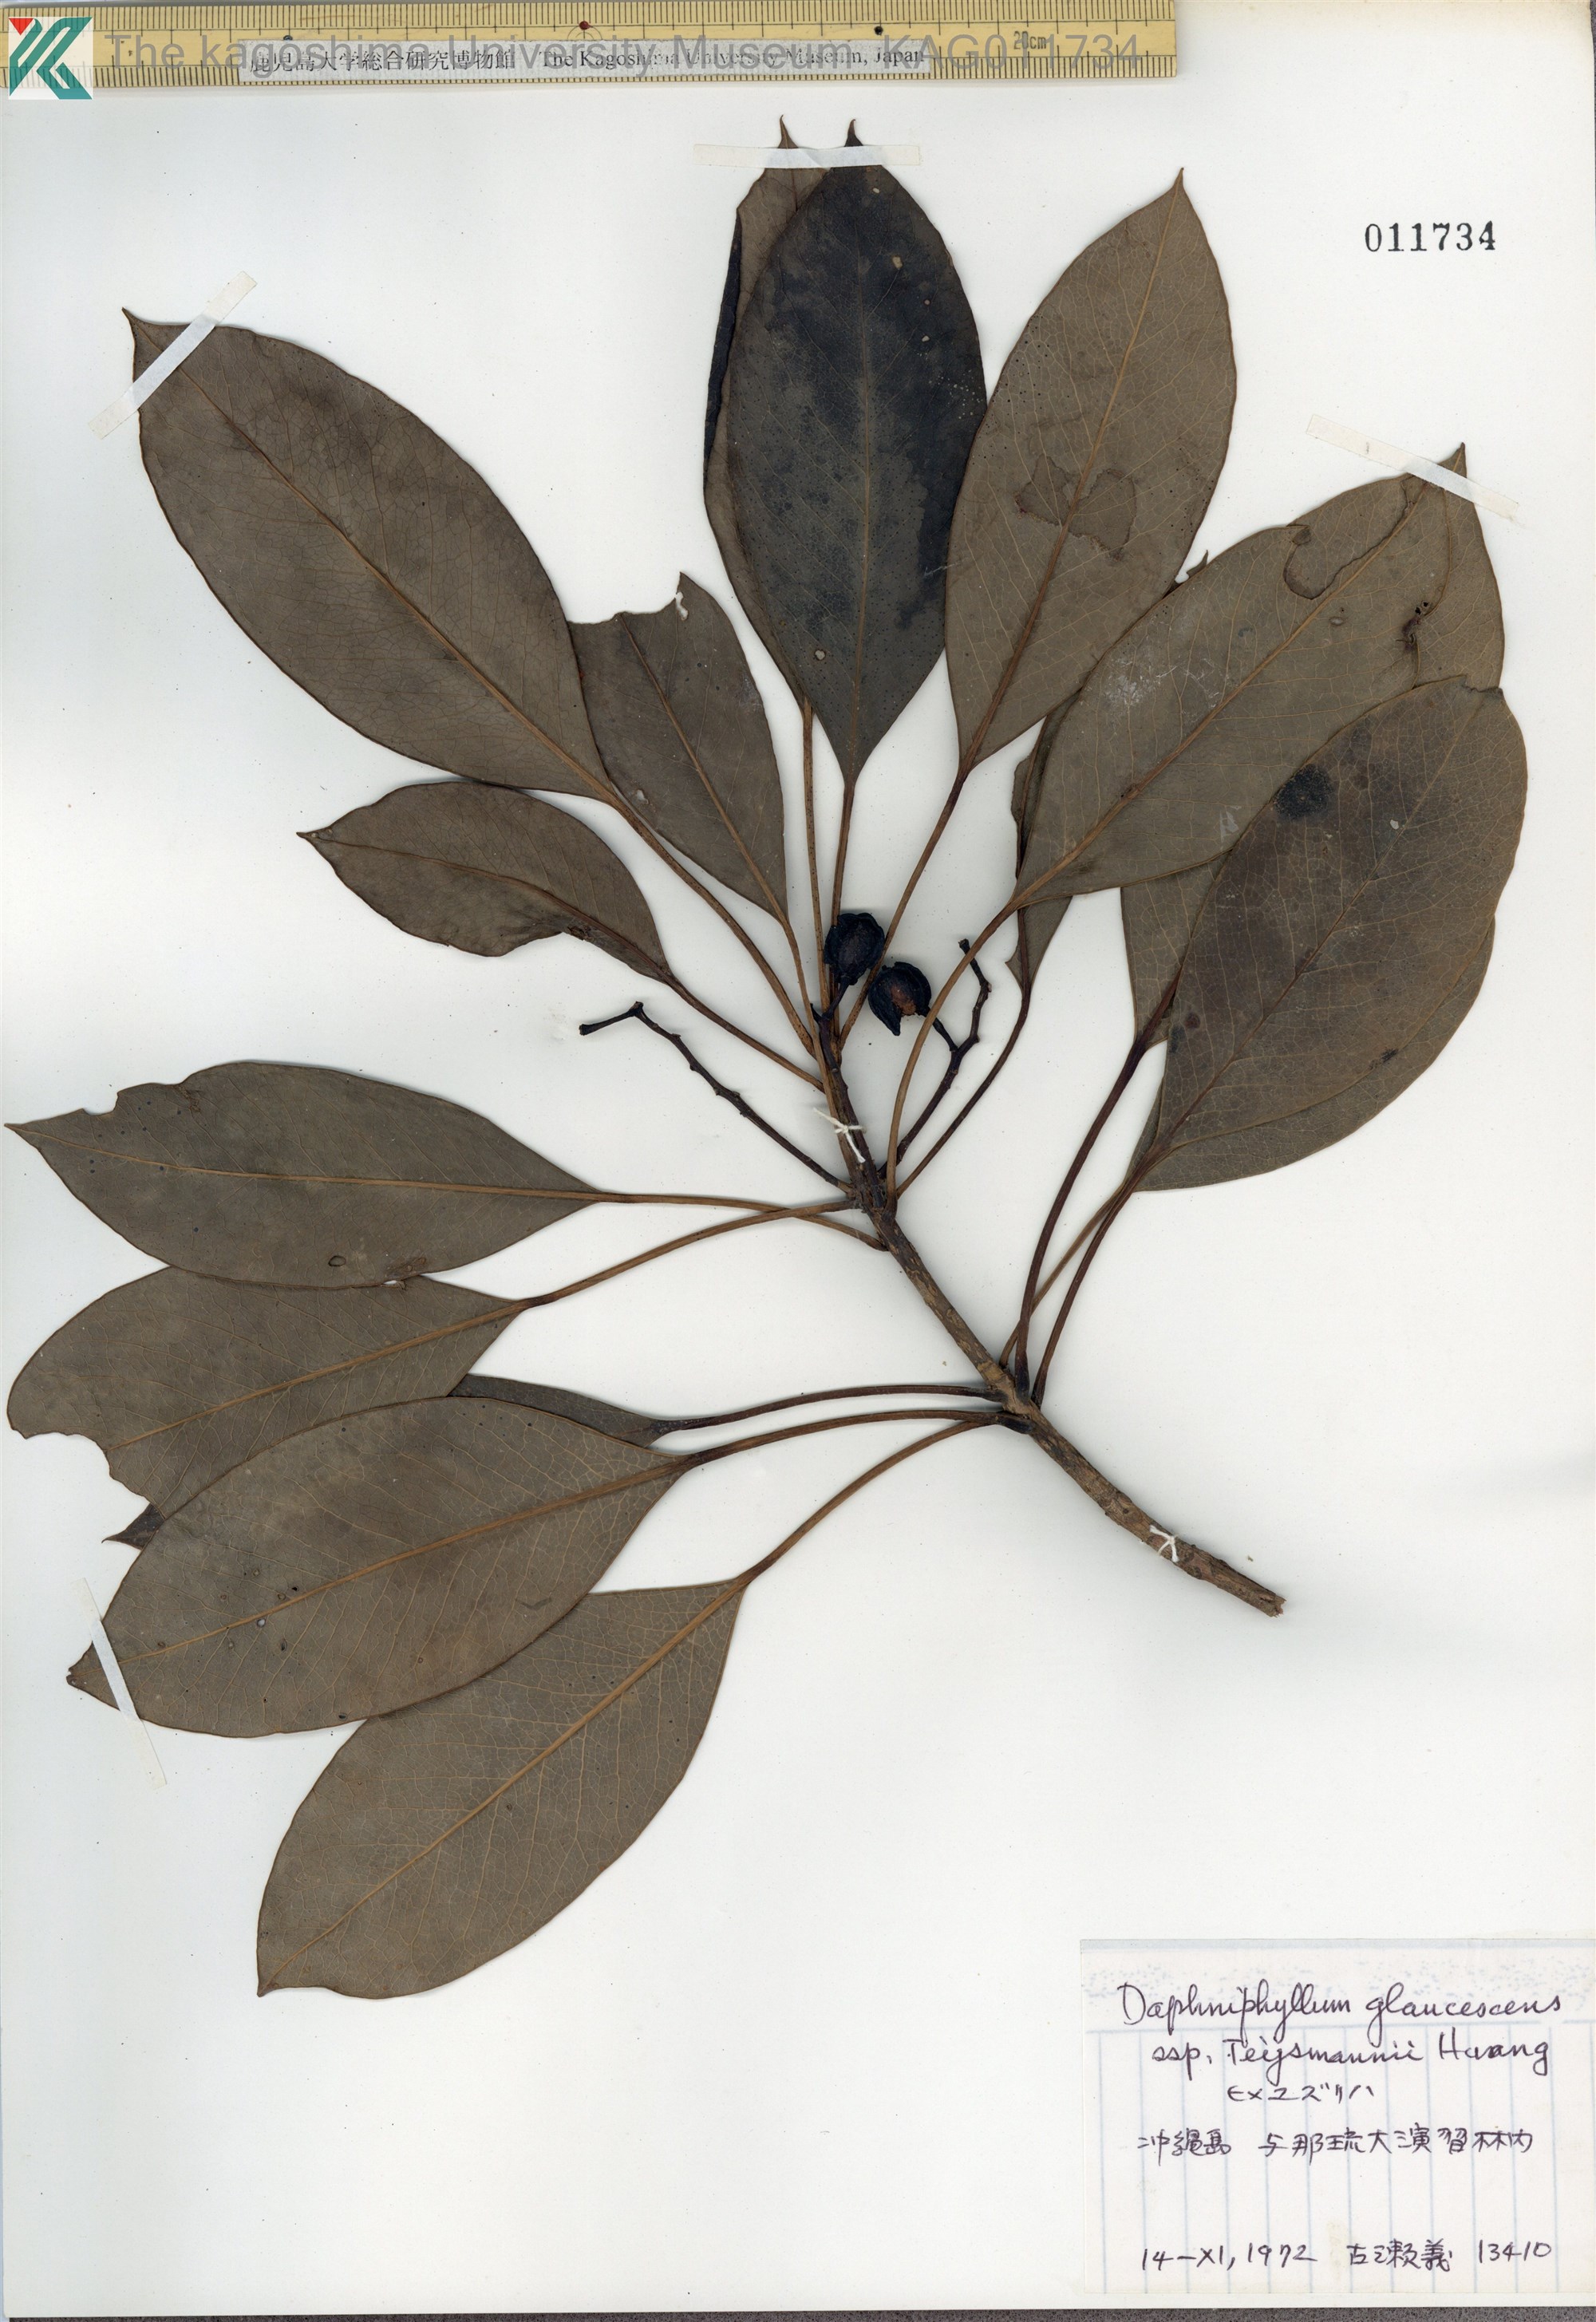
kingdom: Plantae
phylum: Tracheophyta
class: Magnoliopsida
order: Saxifragales
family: Daphniphyllaceae
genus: Daphniphyllum
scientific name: Daphniphyllum teijsmannii
